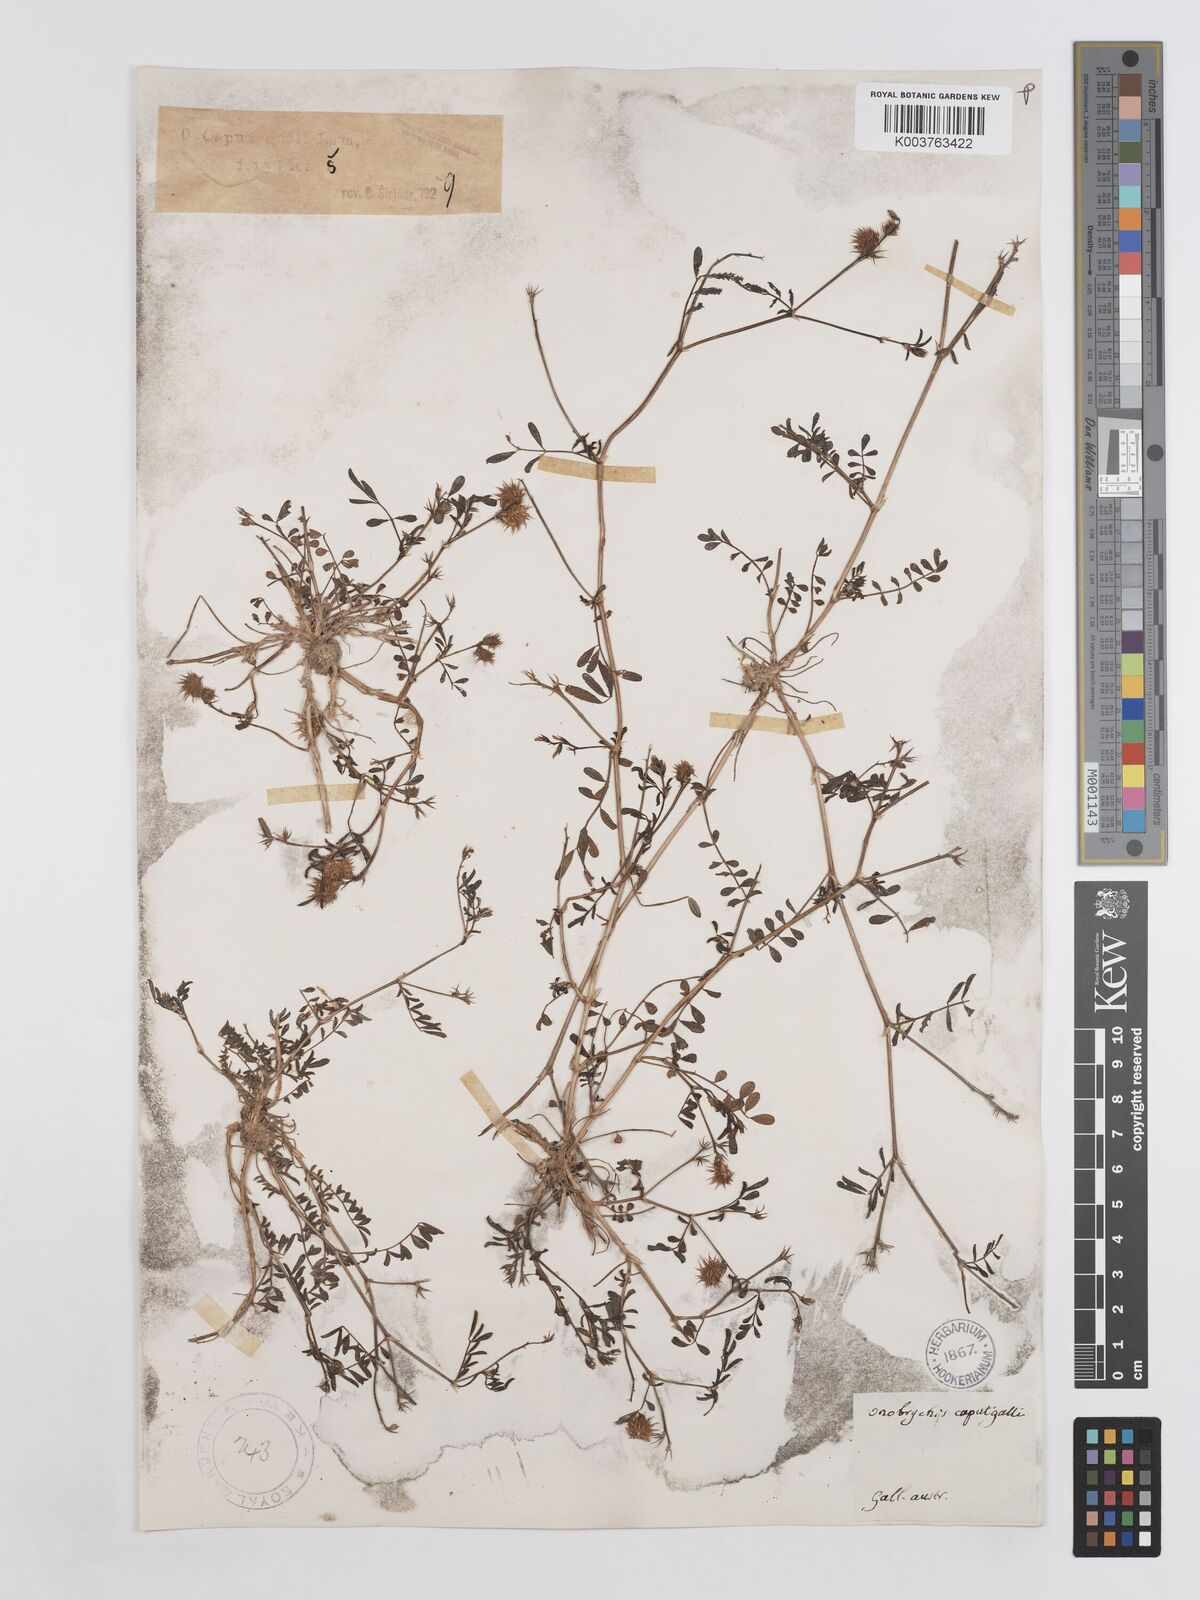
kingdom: Plantae
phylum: Tracheophyta
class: Magnoliopsida
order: Fabales
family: Fabaceae
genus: Onobrychis
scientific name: Onobrychis caput-galli
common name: Cockscomb sainfoin
